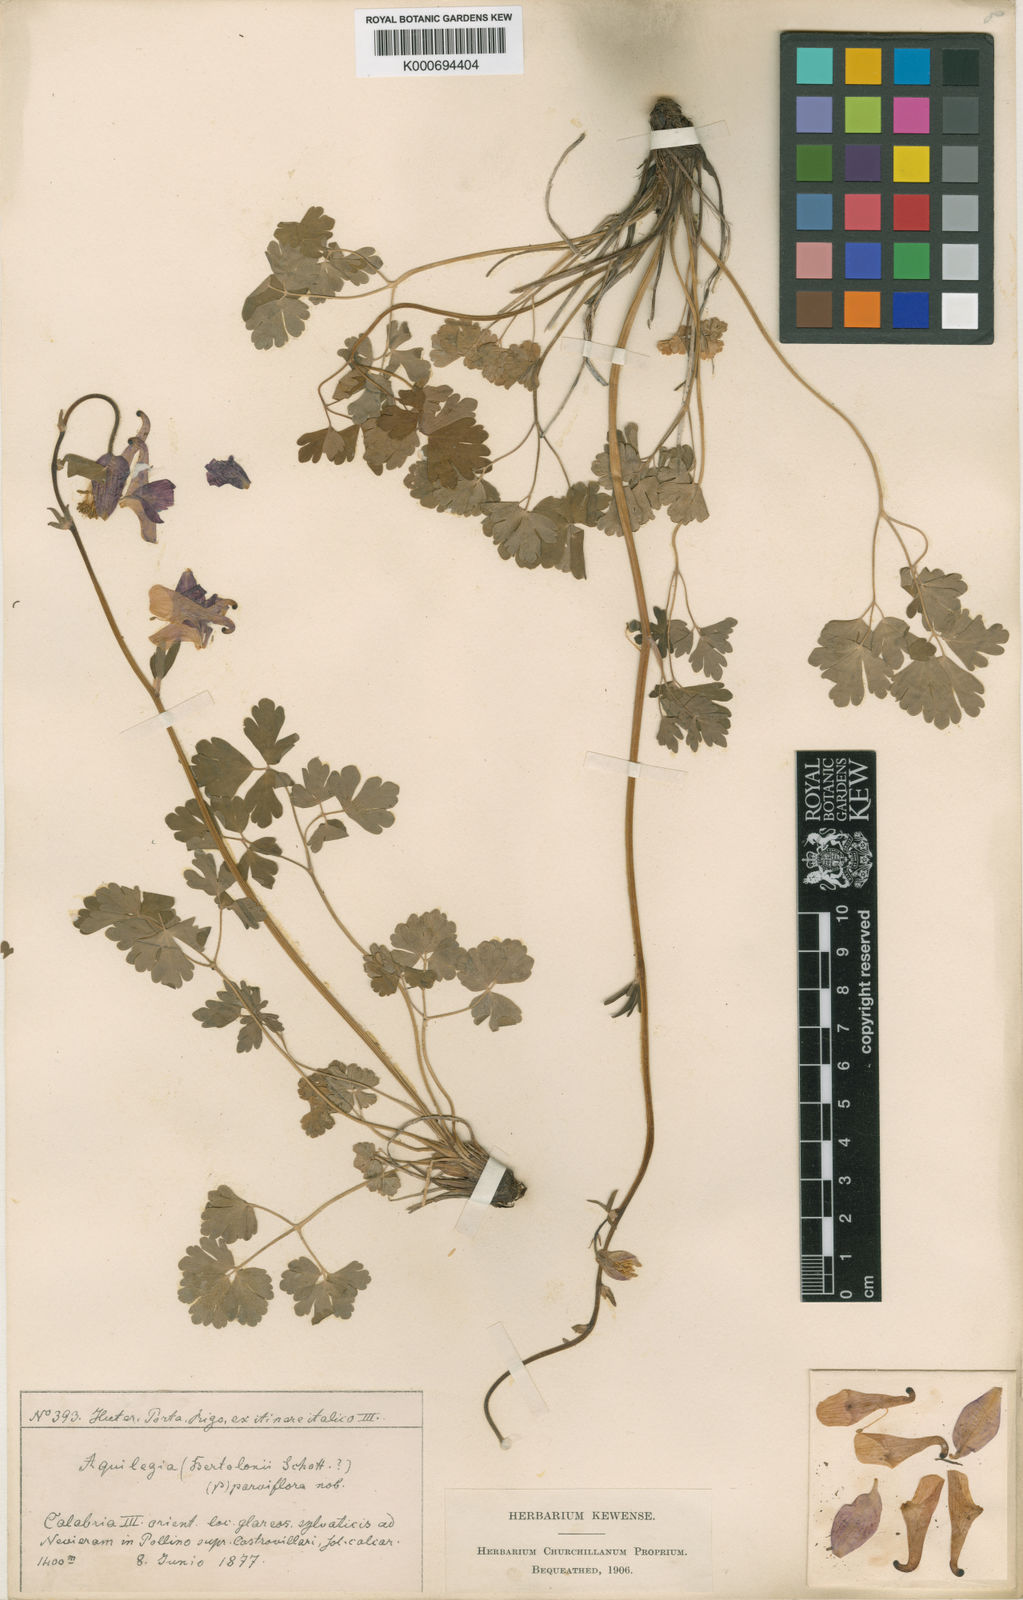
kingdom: Plantae
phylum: Tracheophyta
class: Magnoliopsida
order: Ranunculales
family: Ranunculaceae
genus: Aquilegia
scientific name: Aquilegia vulgaris
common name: Columbine
